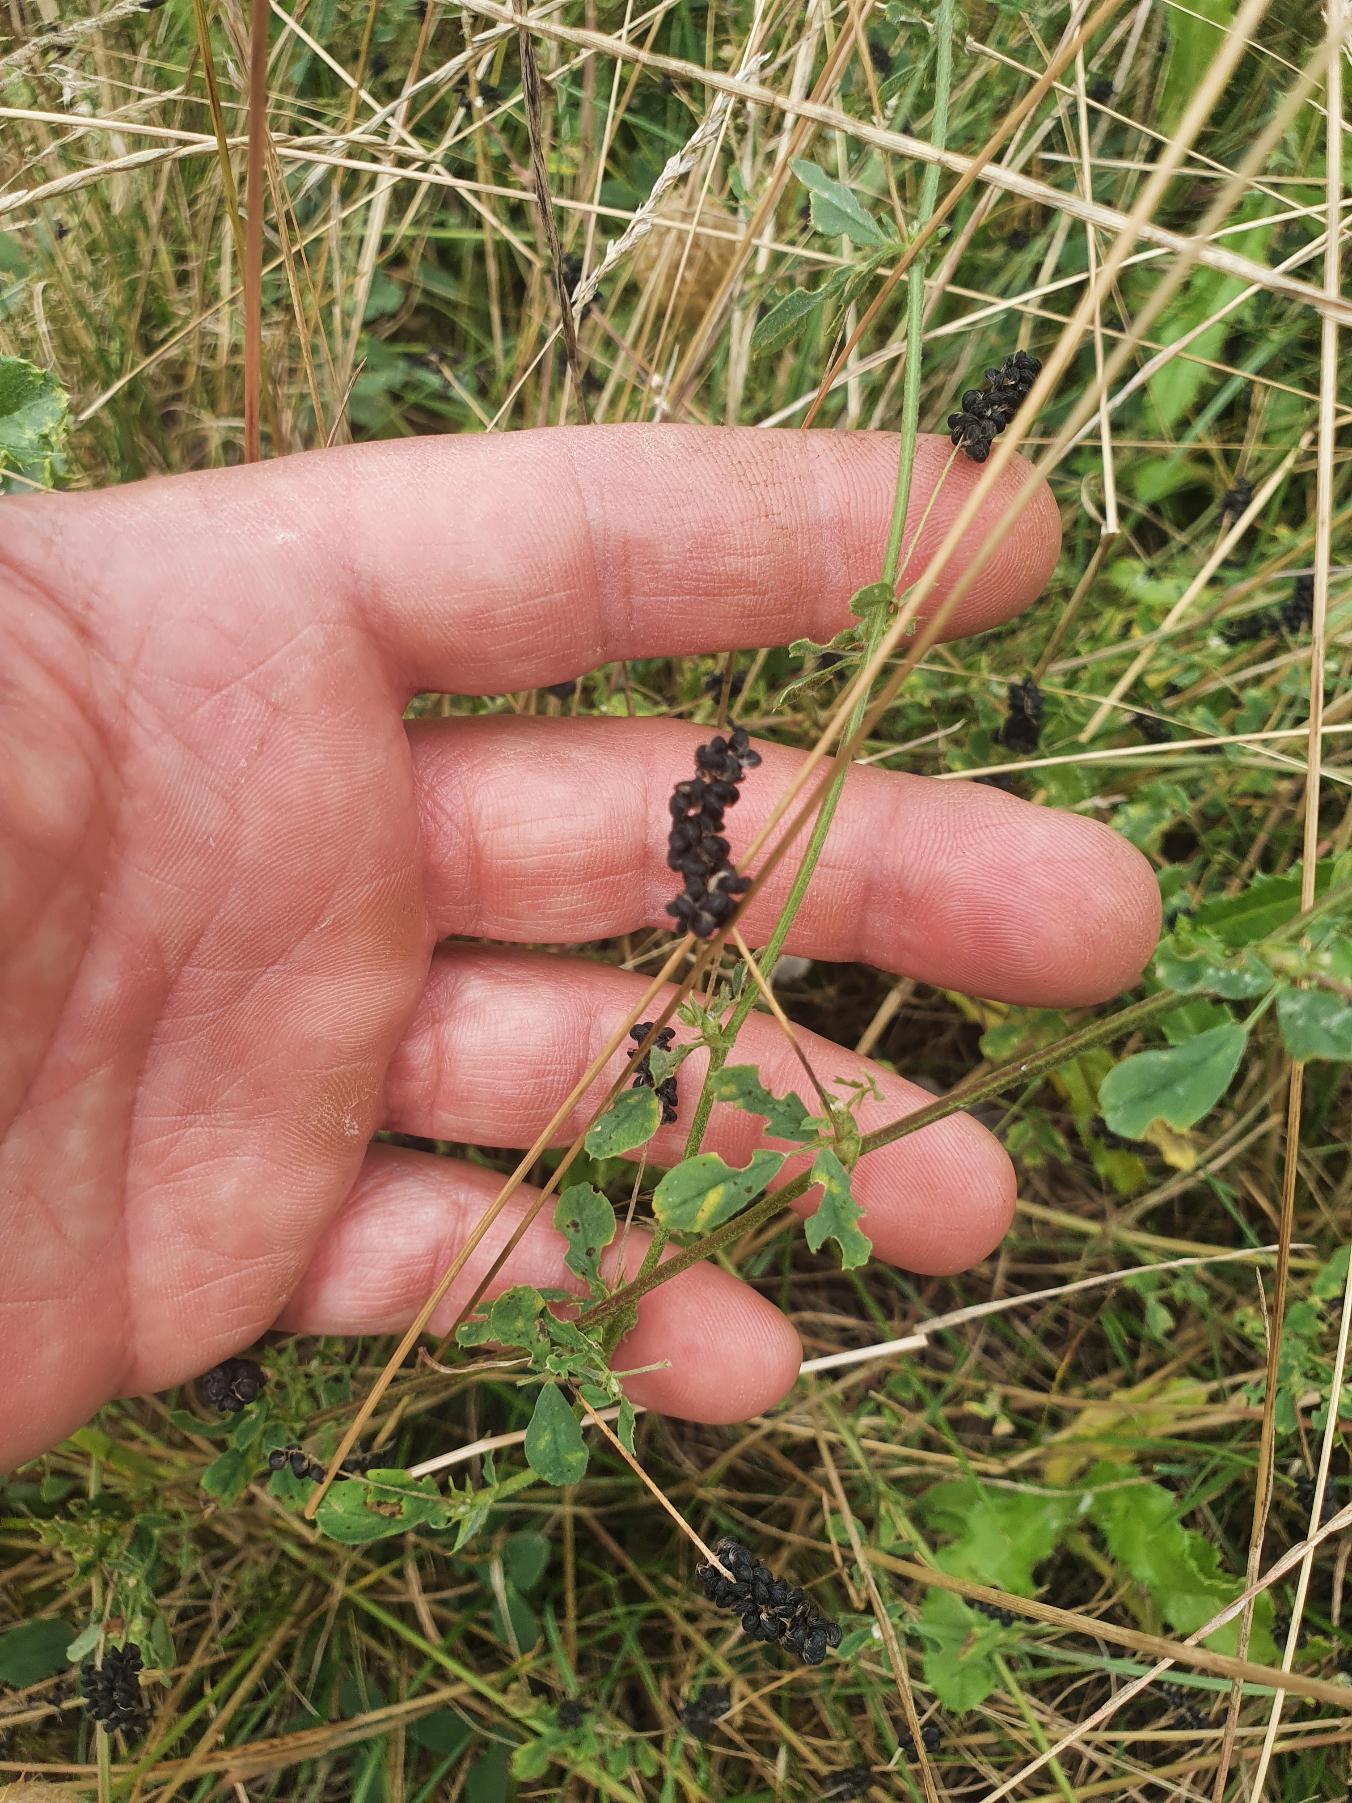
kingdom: Plantae
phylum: Tracheophyta
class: Magnoliopsida
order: Fabales
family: Fabaceae
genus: Medicago
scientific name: Medicago lupulina
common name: Humle-sneglebælg
